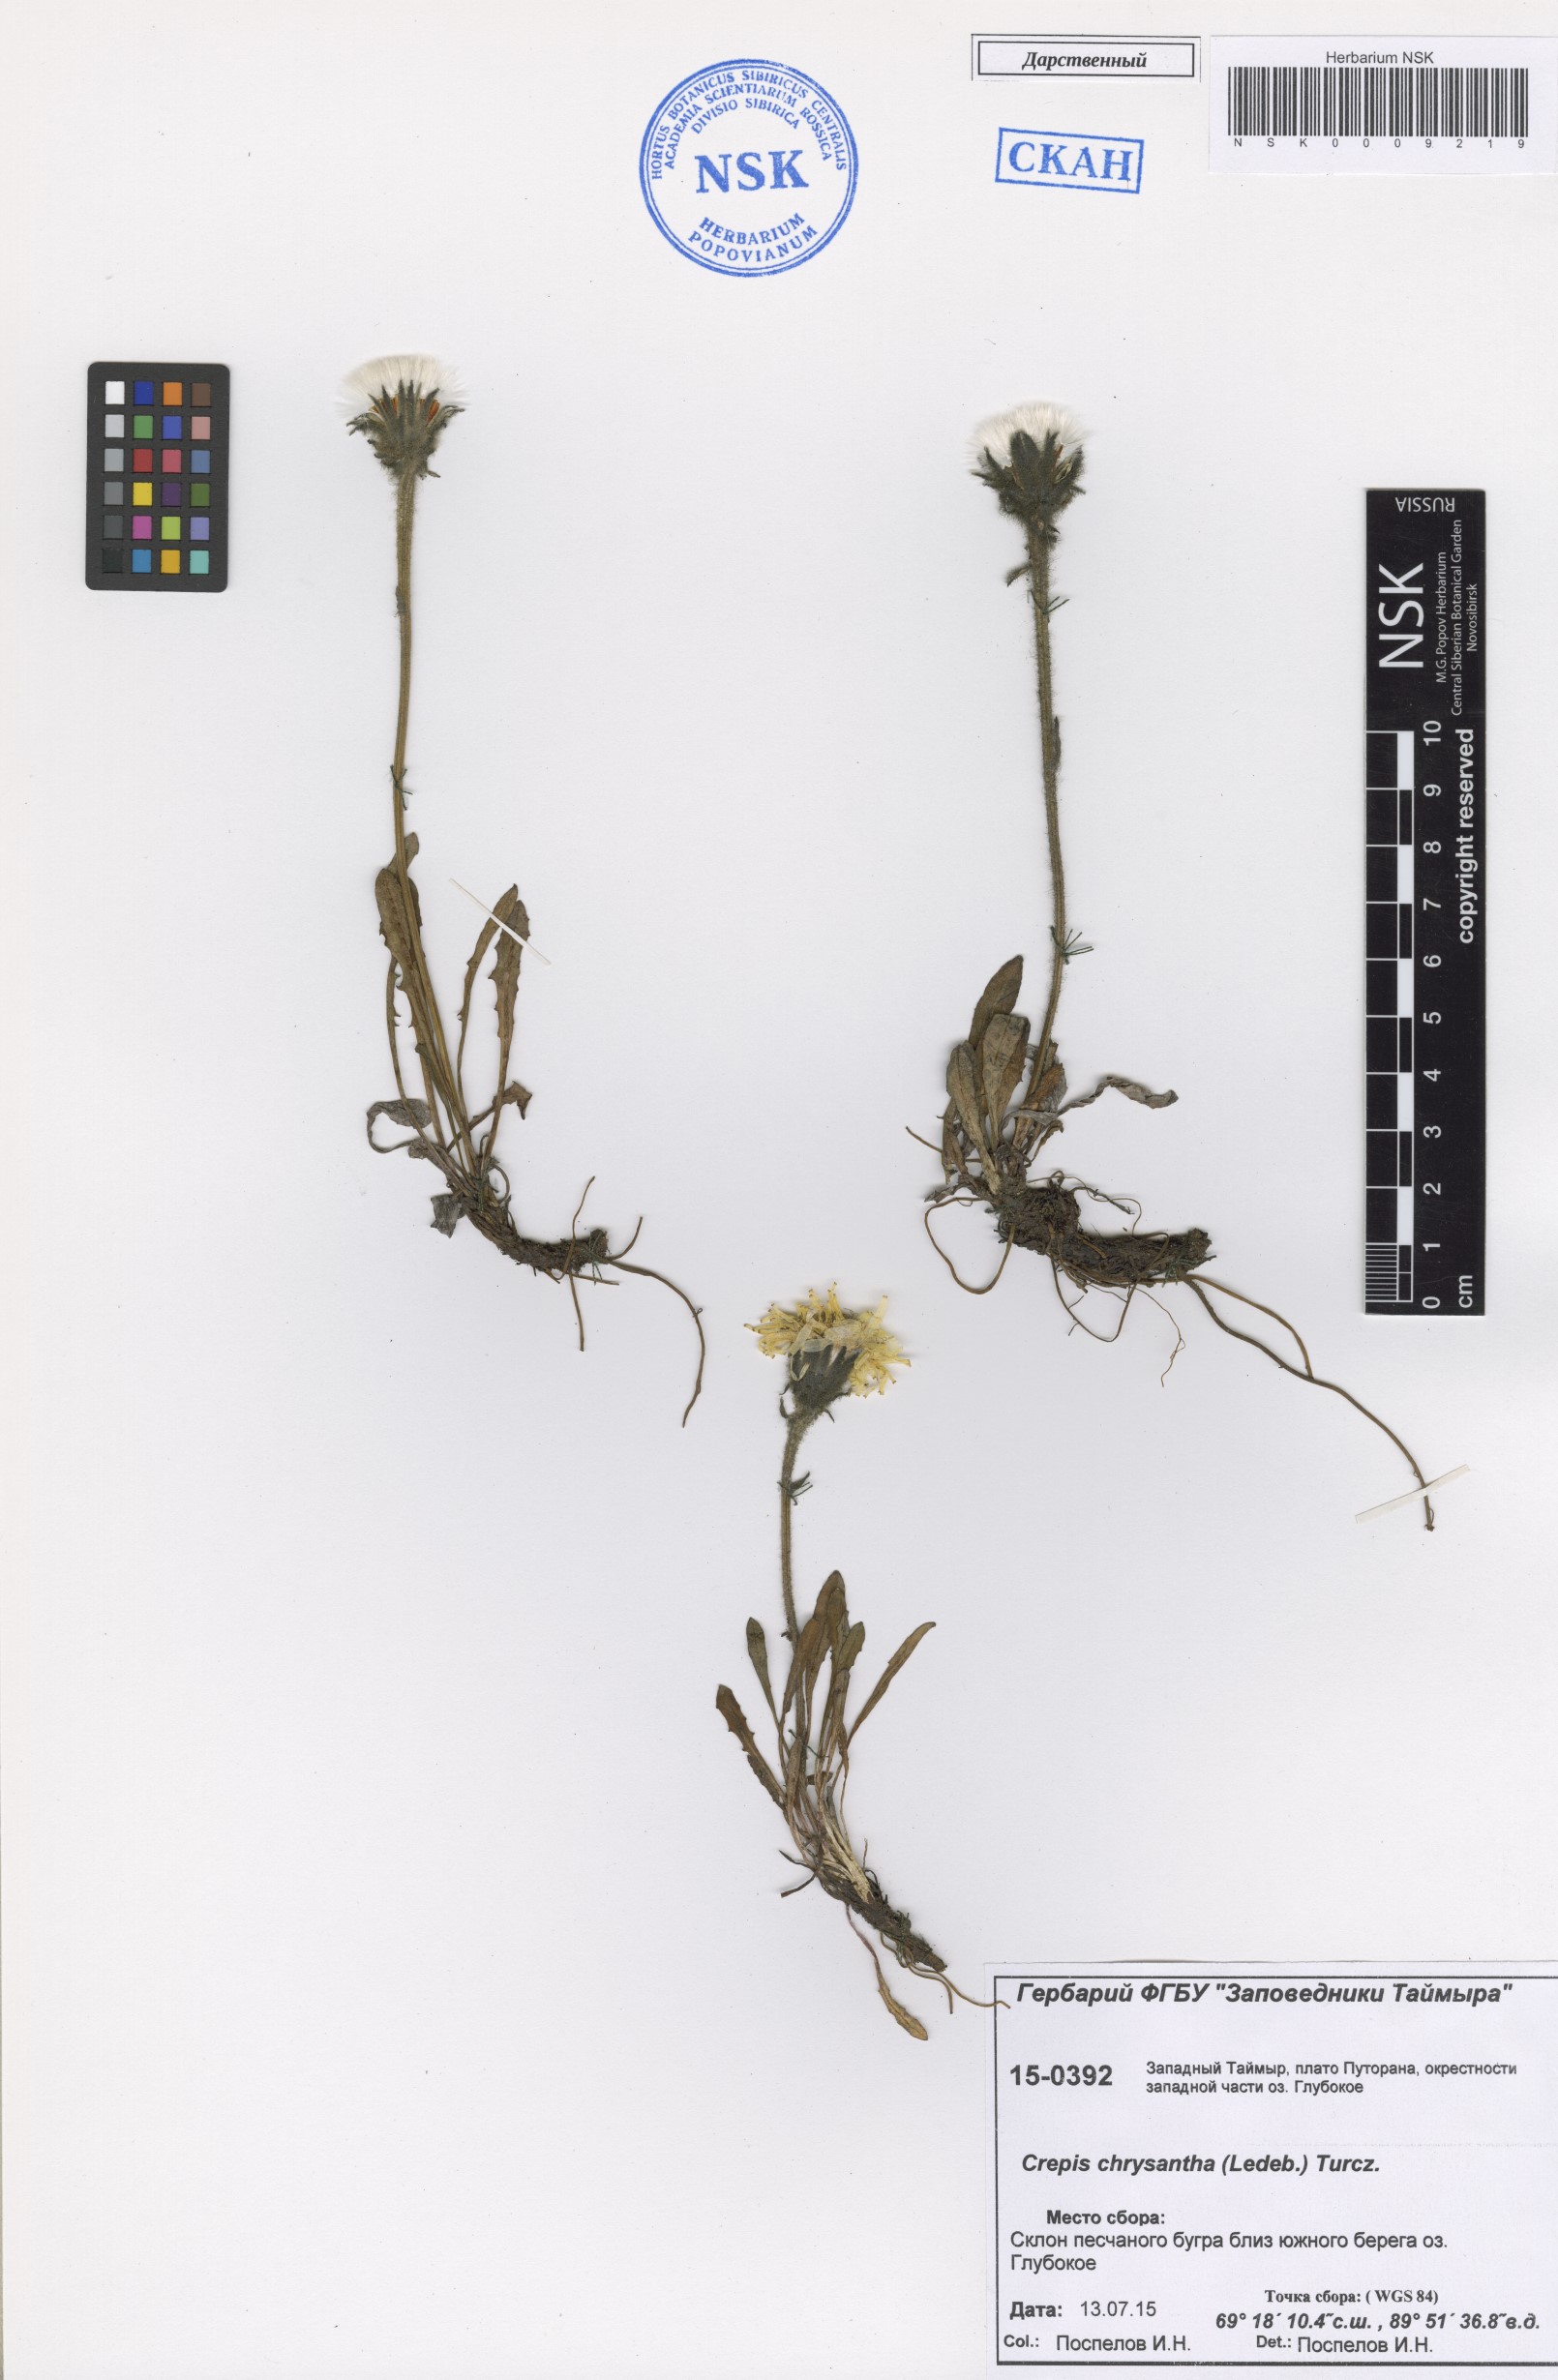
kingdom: Plantae
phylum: Tracheophyta
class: Magnoliopsida
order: Asterales
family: Asteraceae
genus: Crepis
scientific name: Crepis chrysantha
